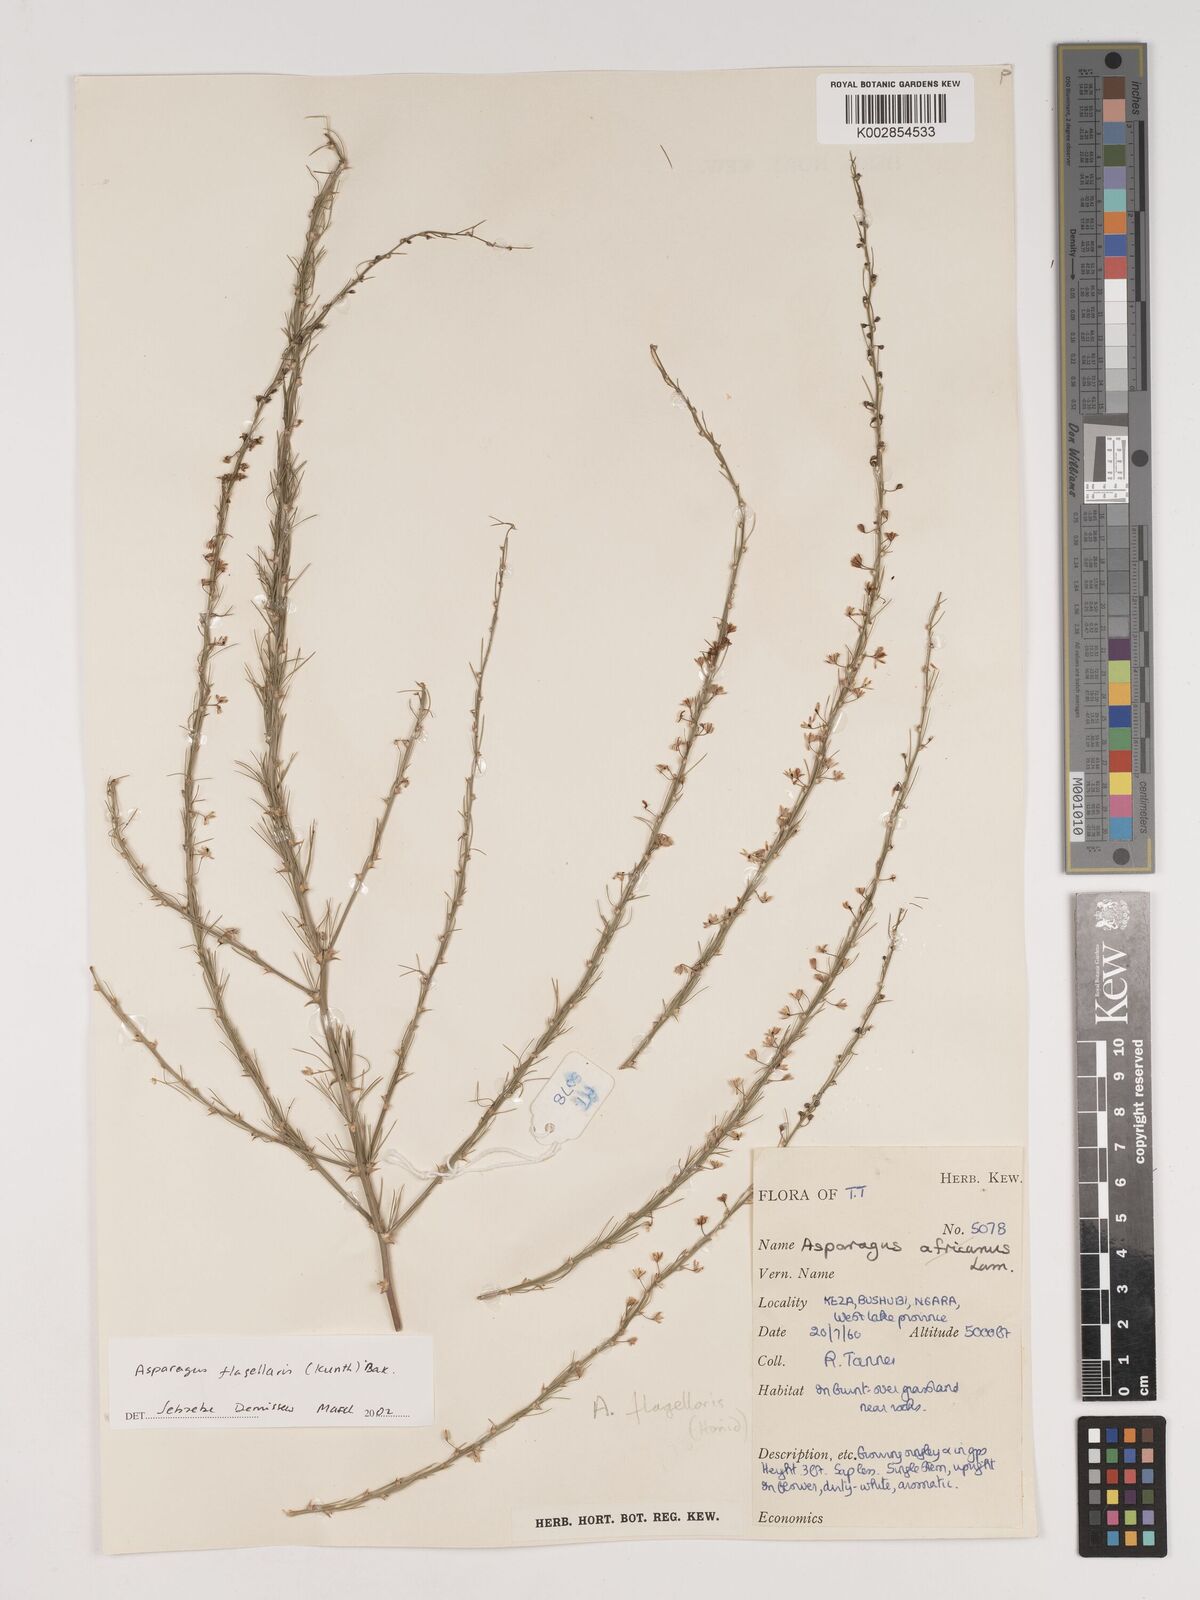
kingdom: Plantae
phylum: Tracheophyta
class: Liliopsida
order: Asparagales
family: Asparagaceae
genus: Asparagus
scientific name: Asparagus flagellaris
